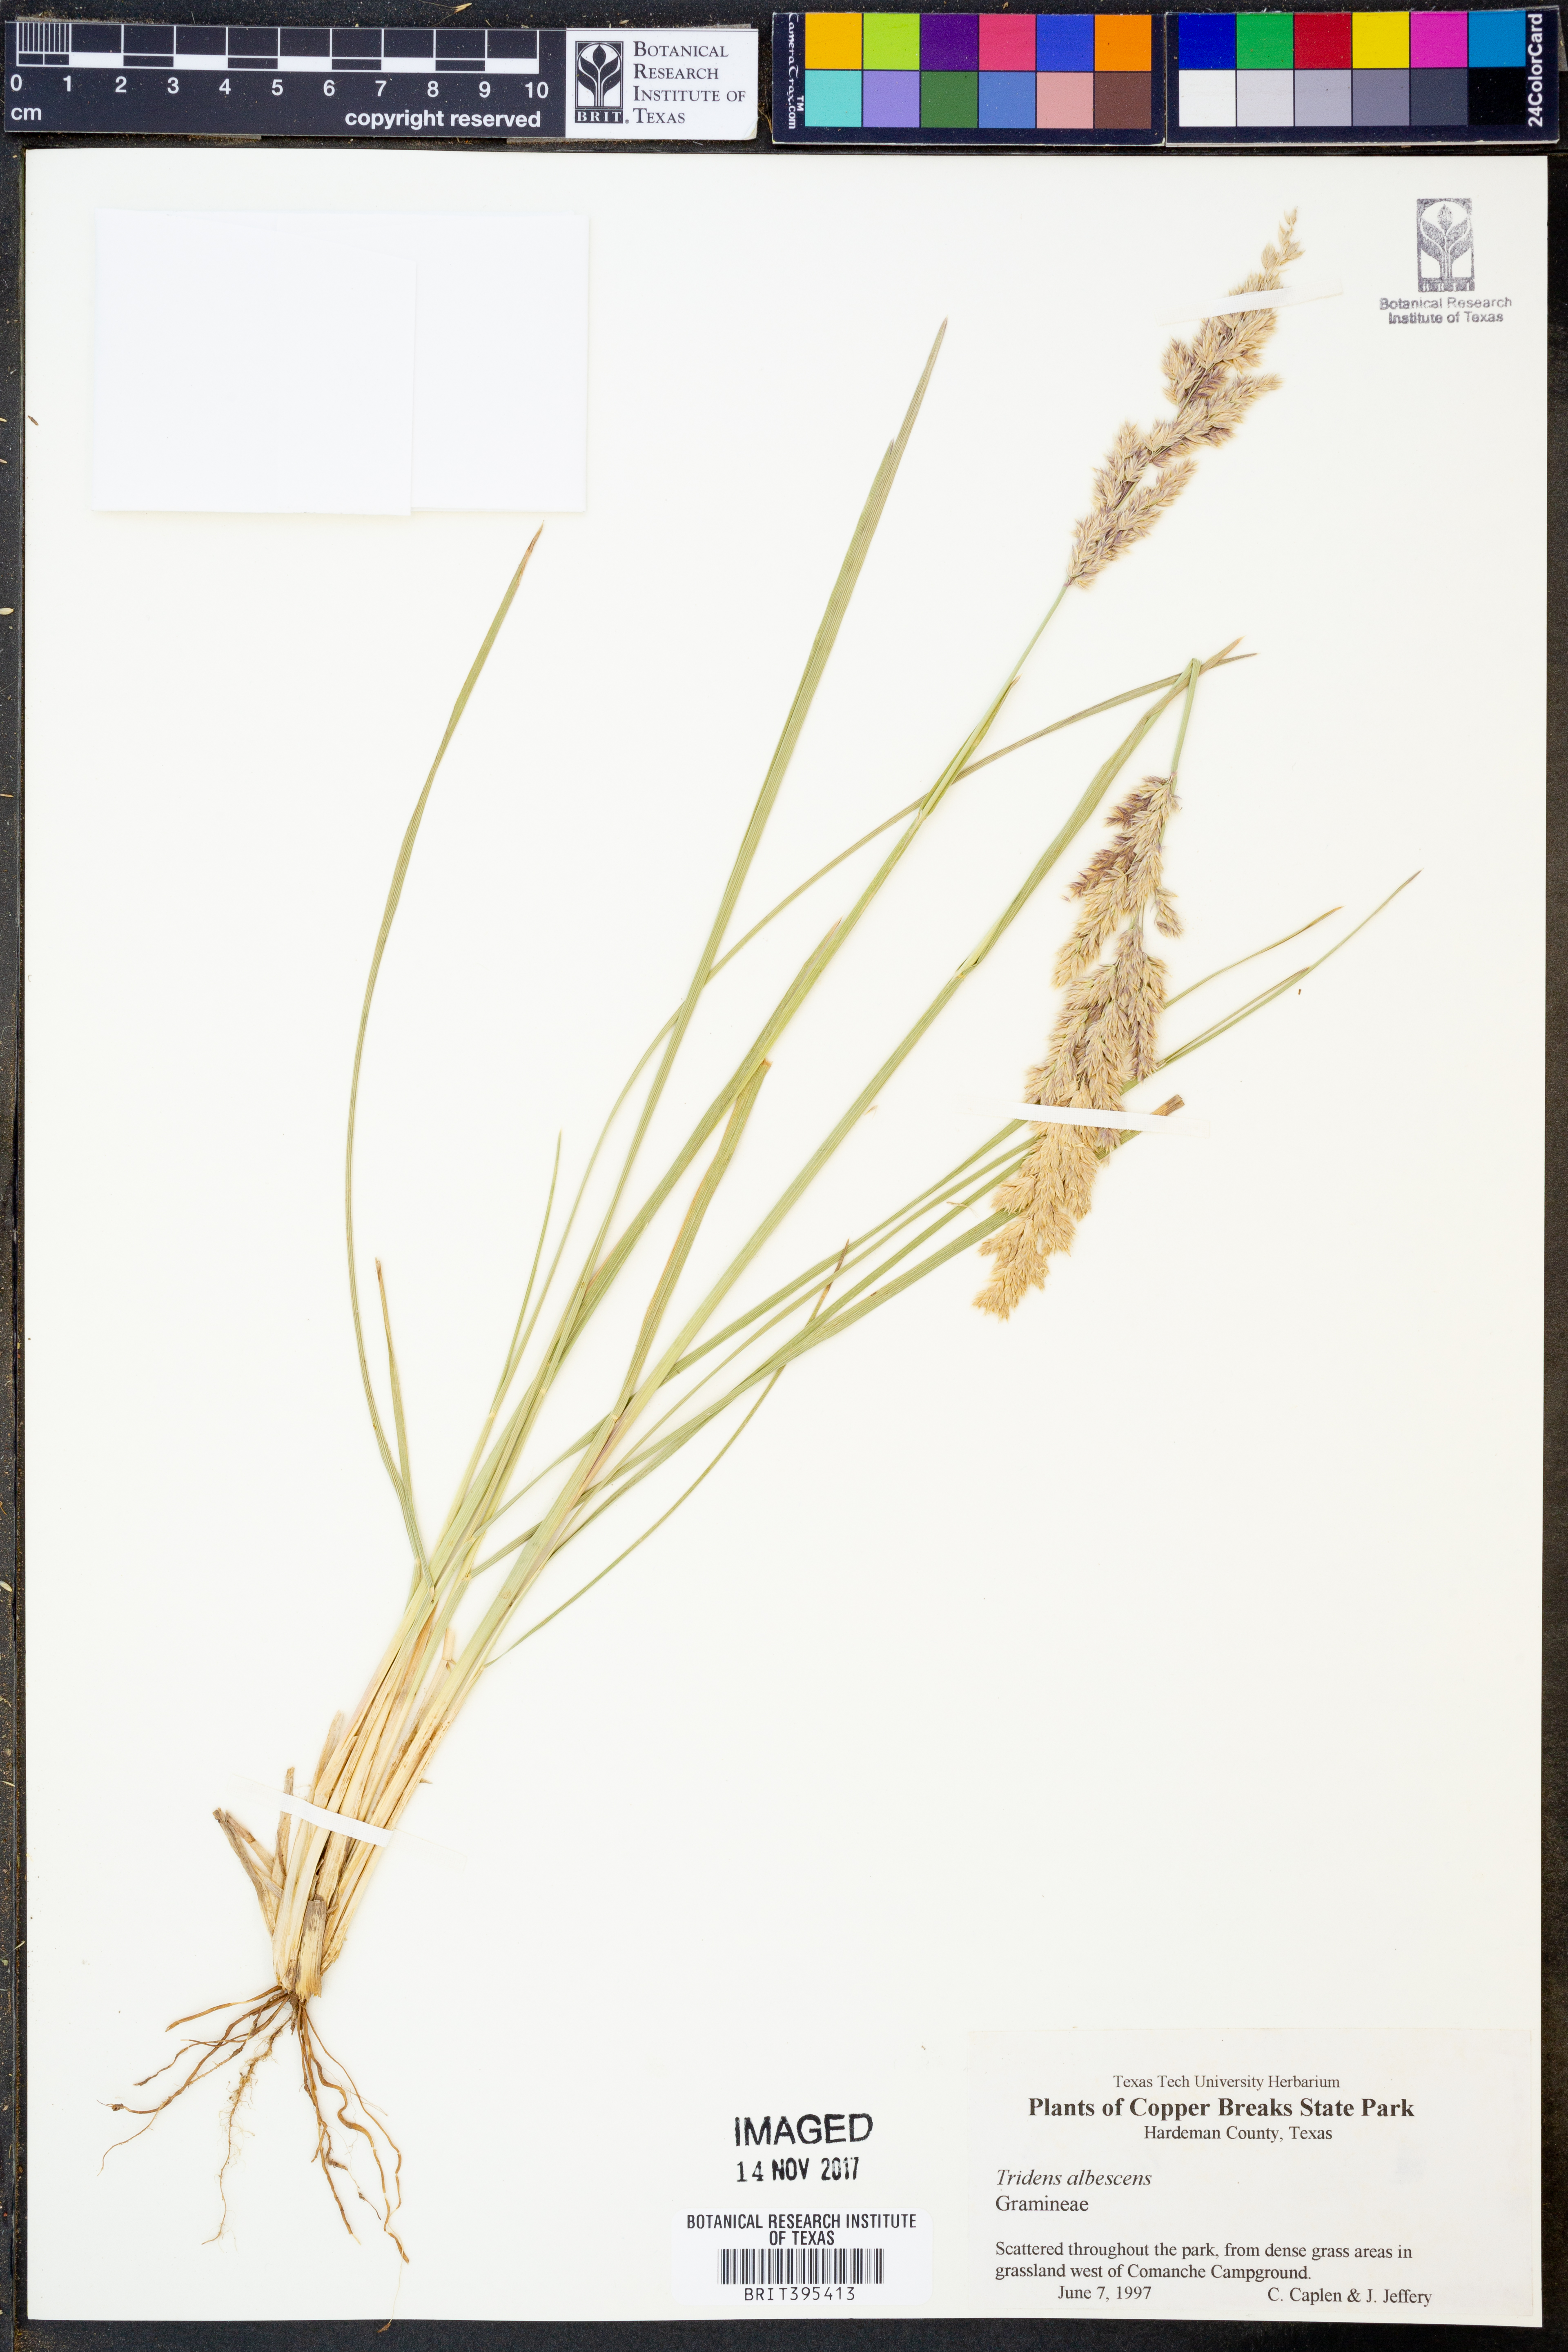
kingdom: Plantae
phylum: Tracheophyta
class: Liliopsida
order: Poales
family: Poaceae
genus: Tridens
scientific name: Tridens albescens
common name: White tridens
